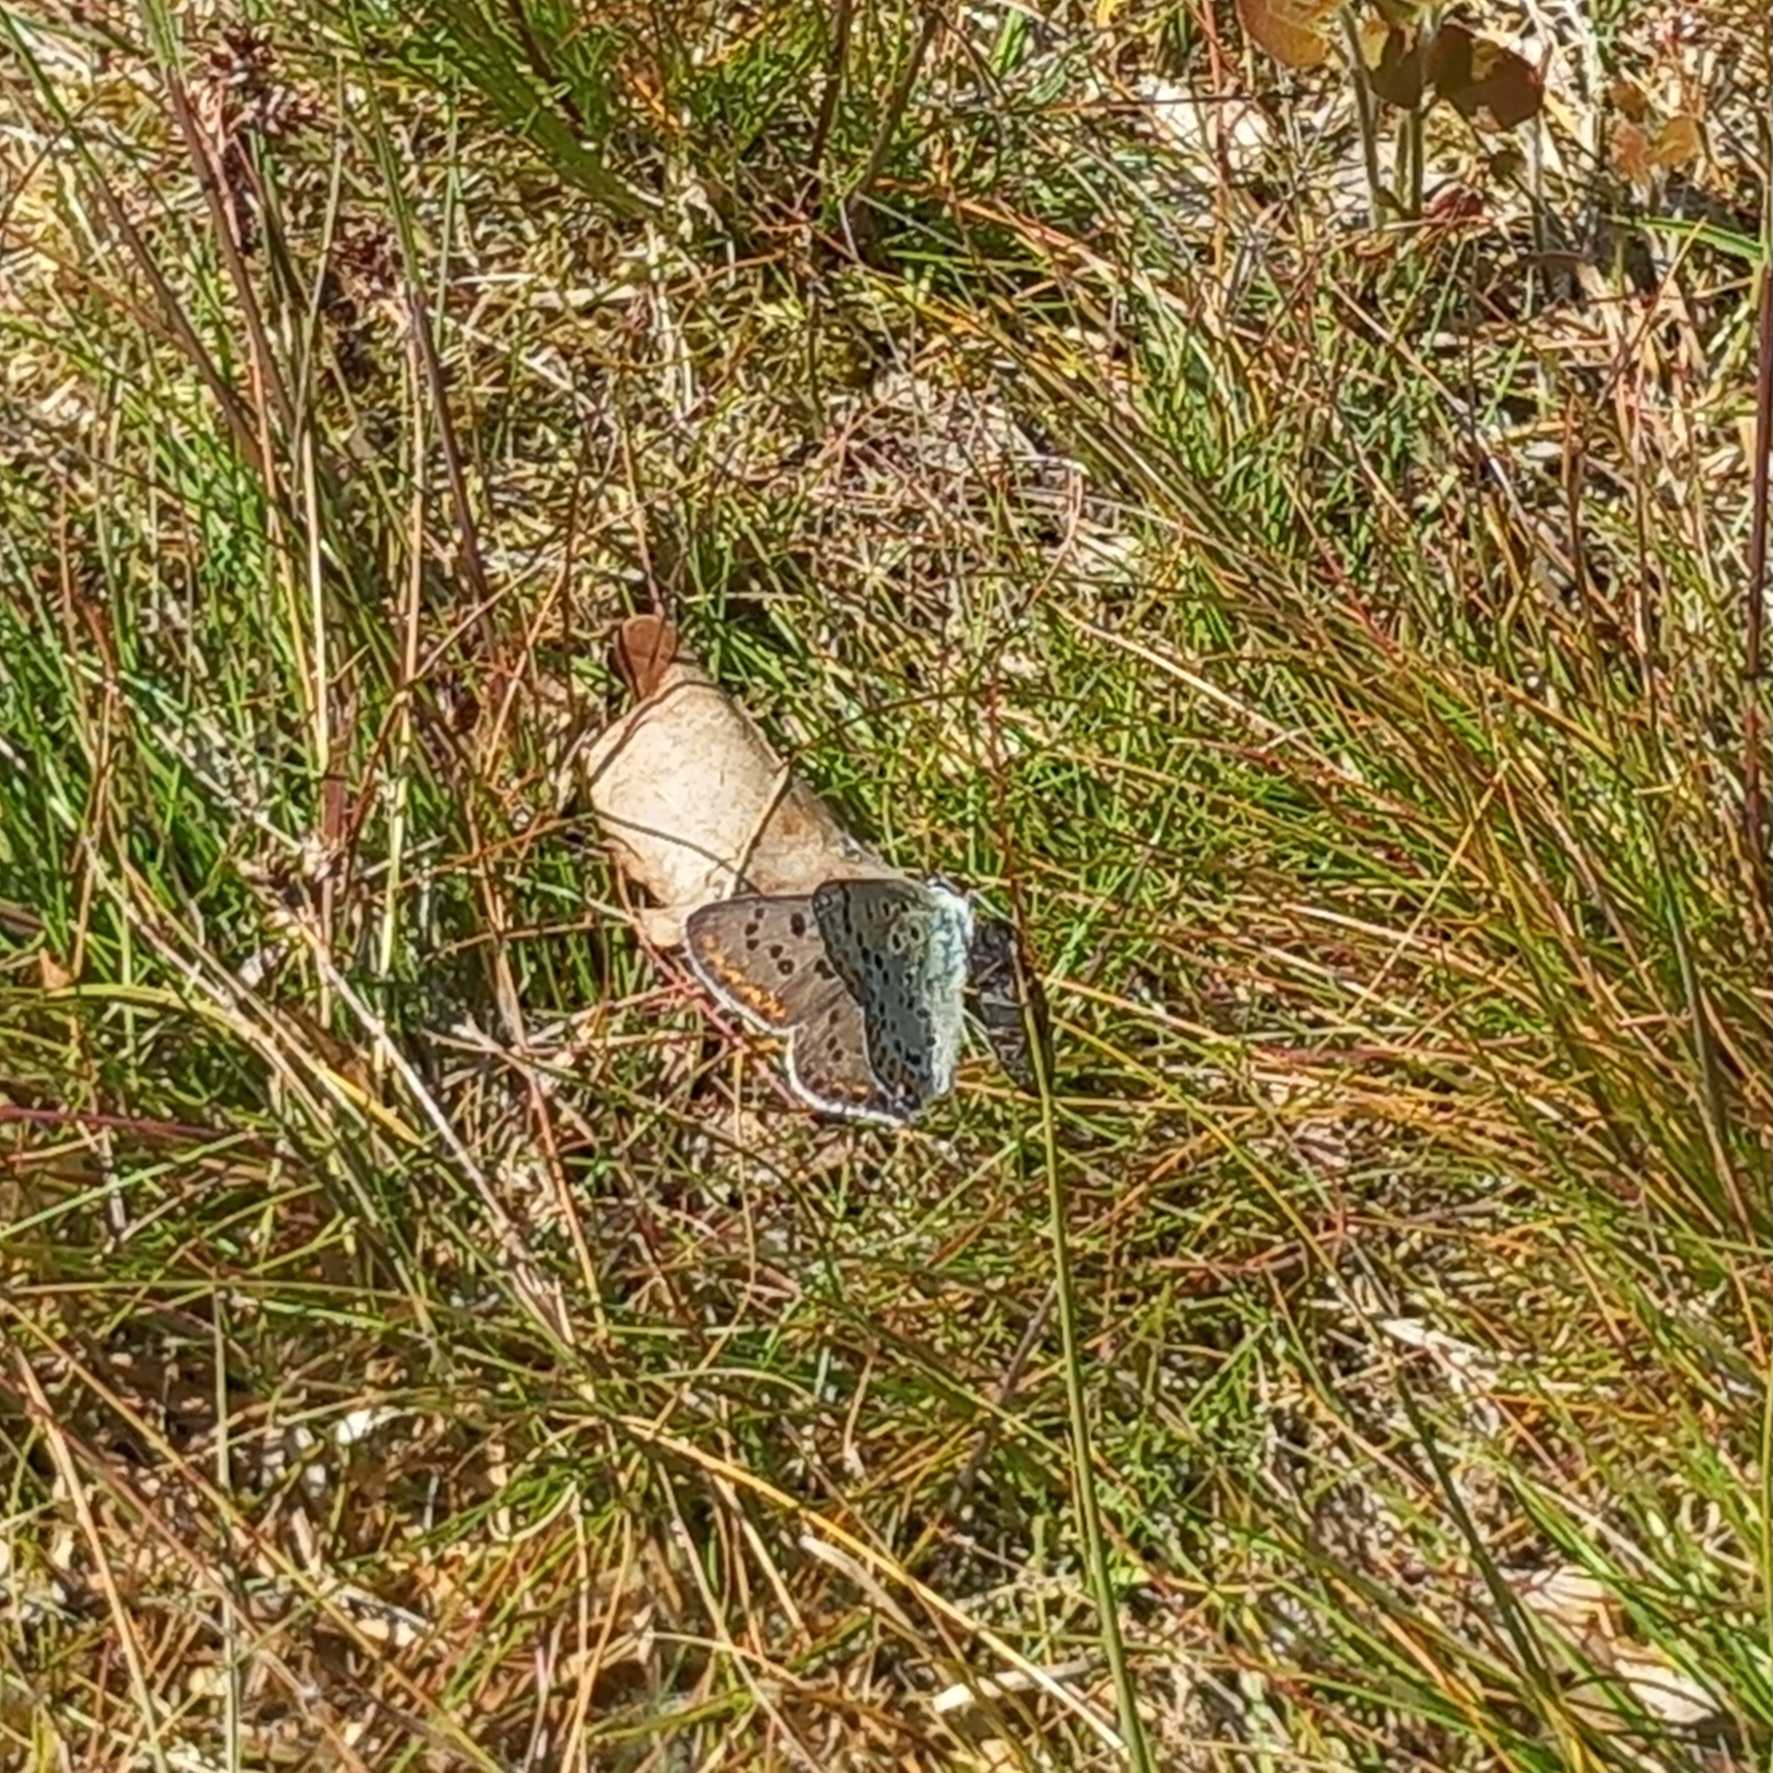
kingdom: Animalia
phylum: Arthropoda
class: Insecta
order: Lepidoptera
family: Lycaenidae
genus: Loweia
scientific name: Loweia tityrus
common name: Sort ildfugl
